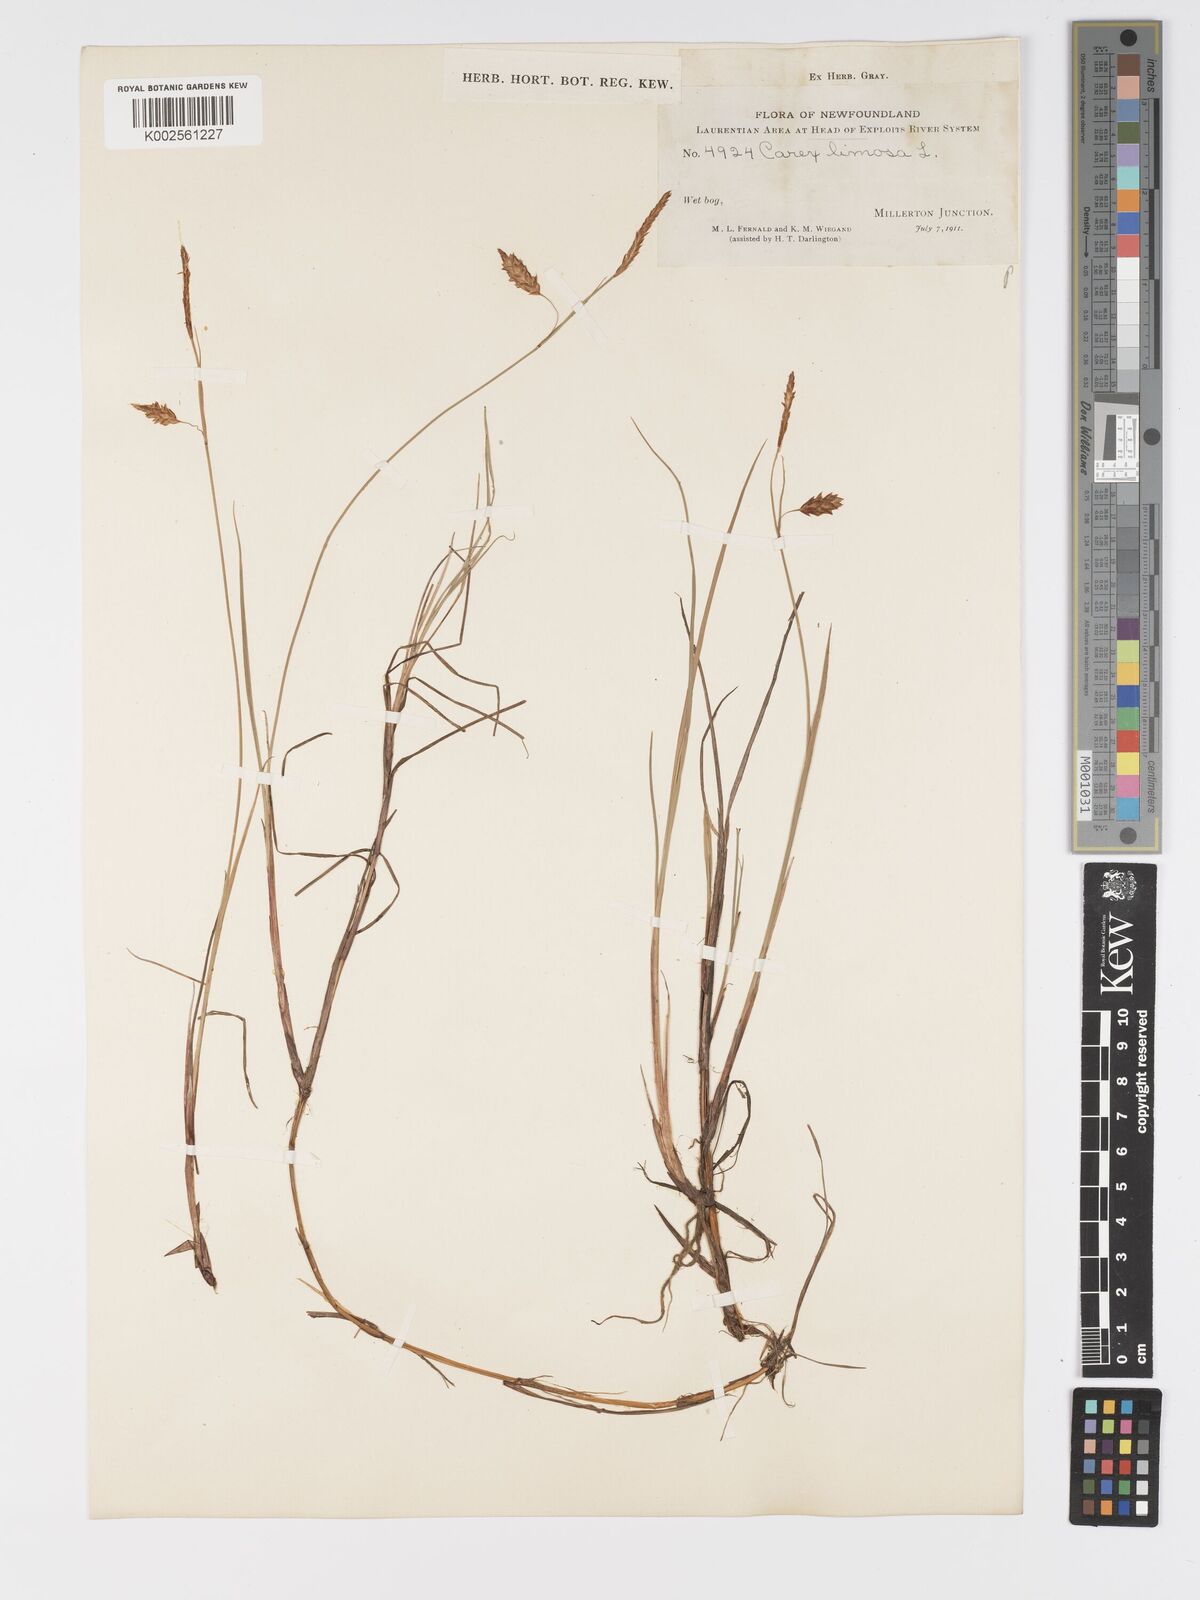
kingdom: Plantae
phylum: Tracheophyta
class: Liliopsida
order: Poales
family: Cyperaceae
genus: Carex
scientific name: Carex limosa
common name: Bog sedge
